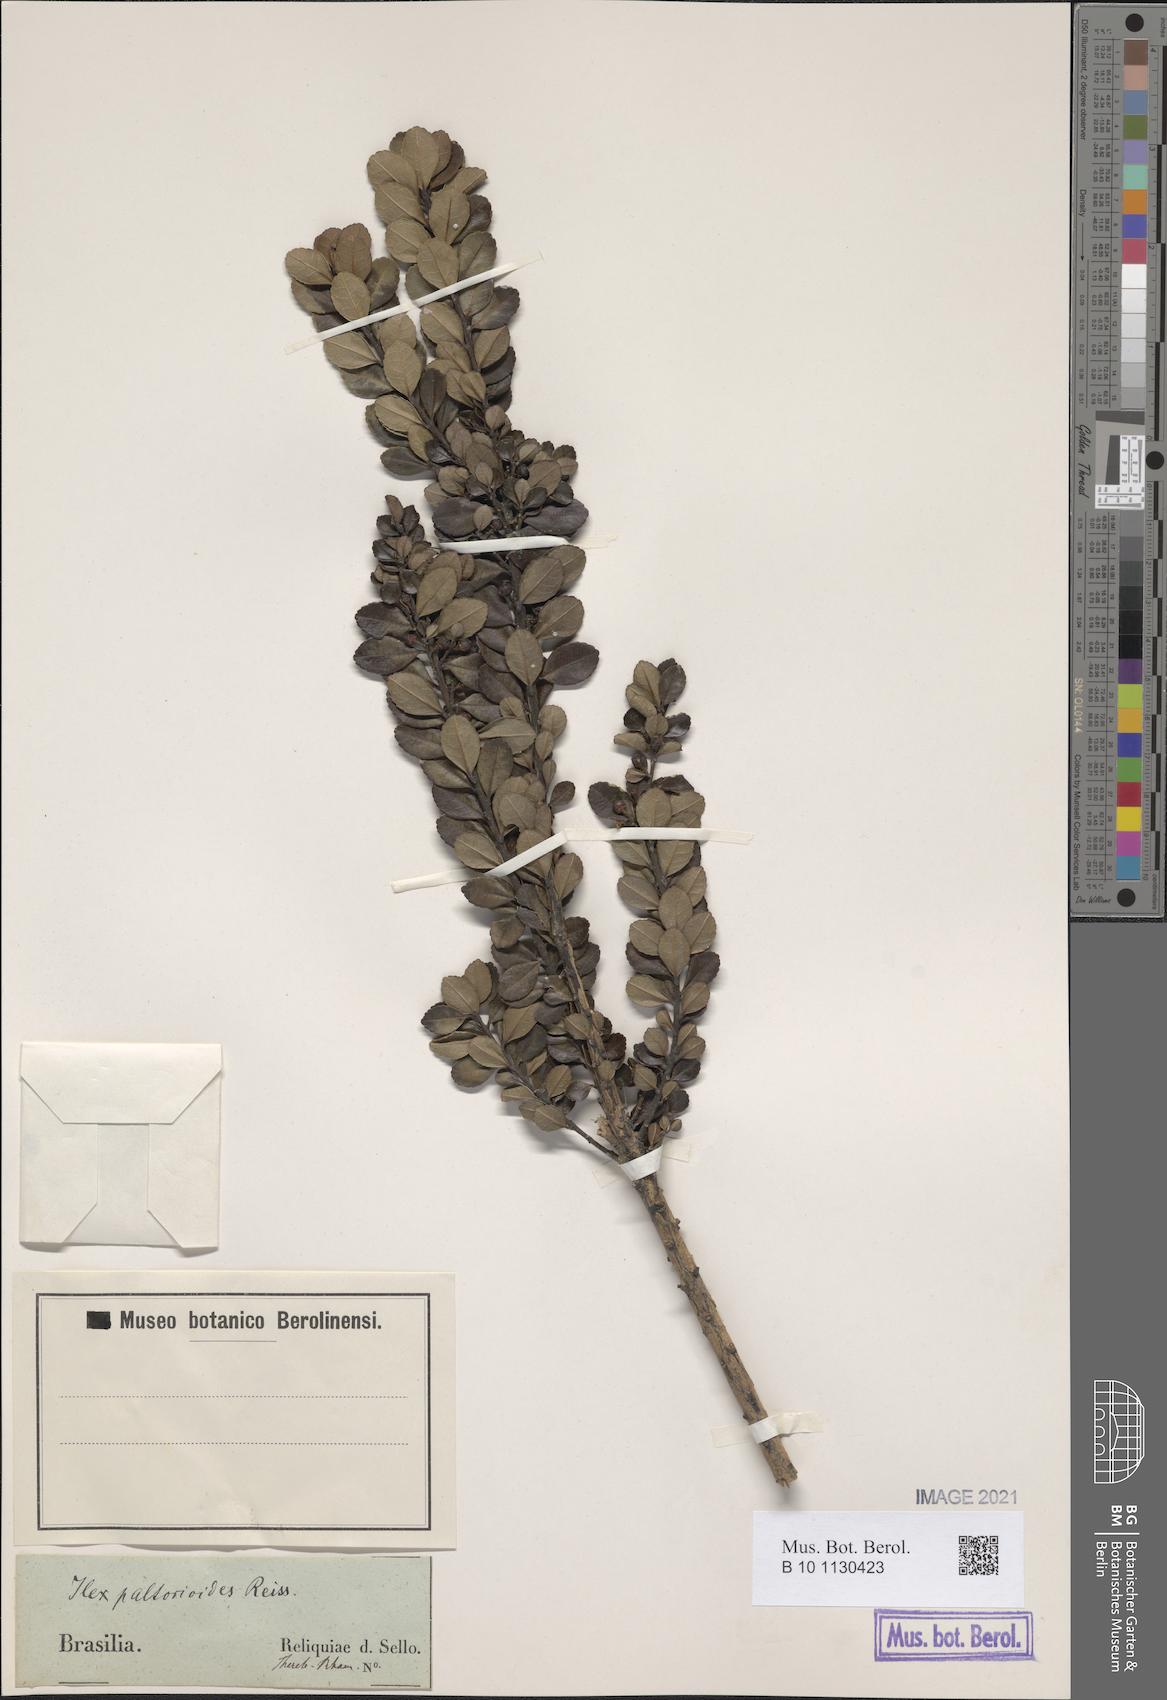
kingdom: Plantae
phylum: Tracheophyta
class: Magnoliopsida
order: Aquifoliales
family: Aquifoliaceae
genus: Ilex
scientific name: Ilex paltorioides
